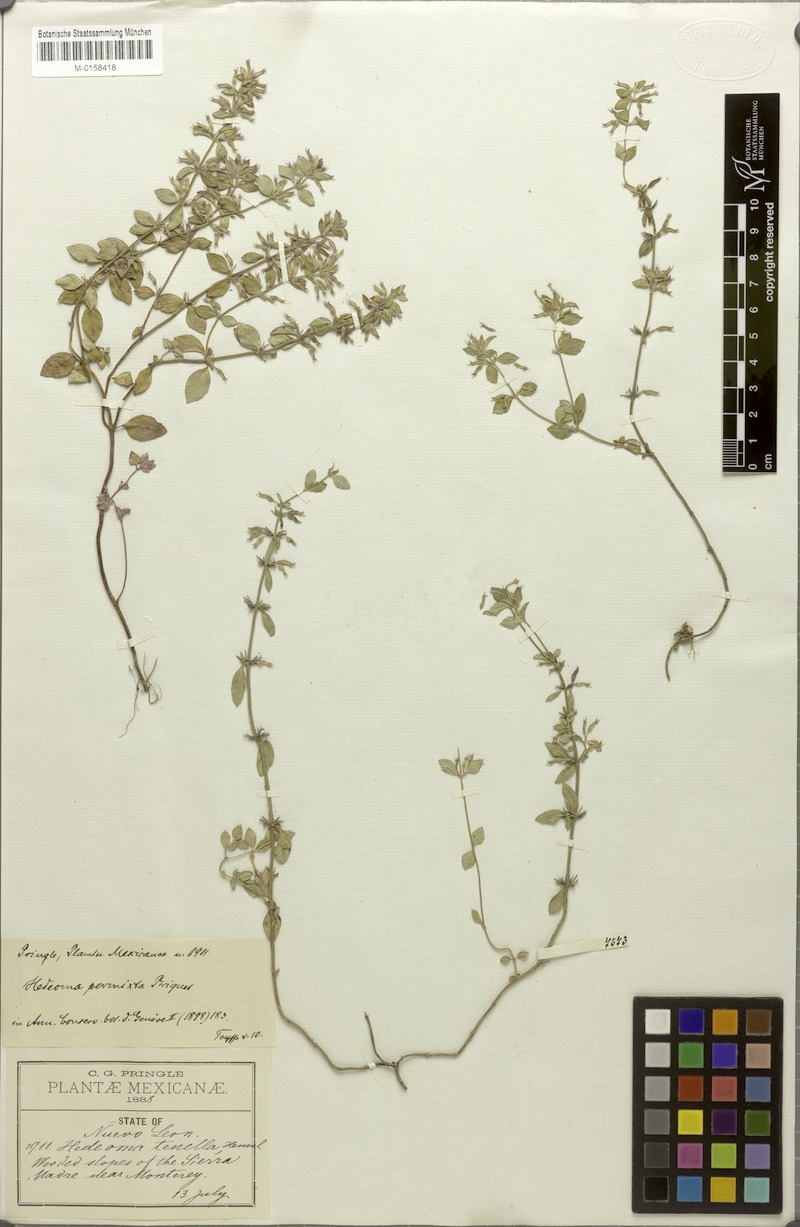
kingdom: Plantae
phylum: Tracheophyta
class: Magnoliopsida
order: Lamiales
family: Lamiaceae
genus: Hedeoma
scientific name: Hedeoma costata
